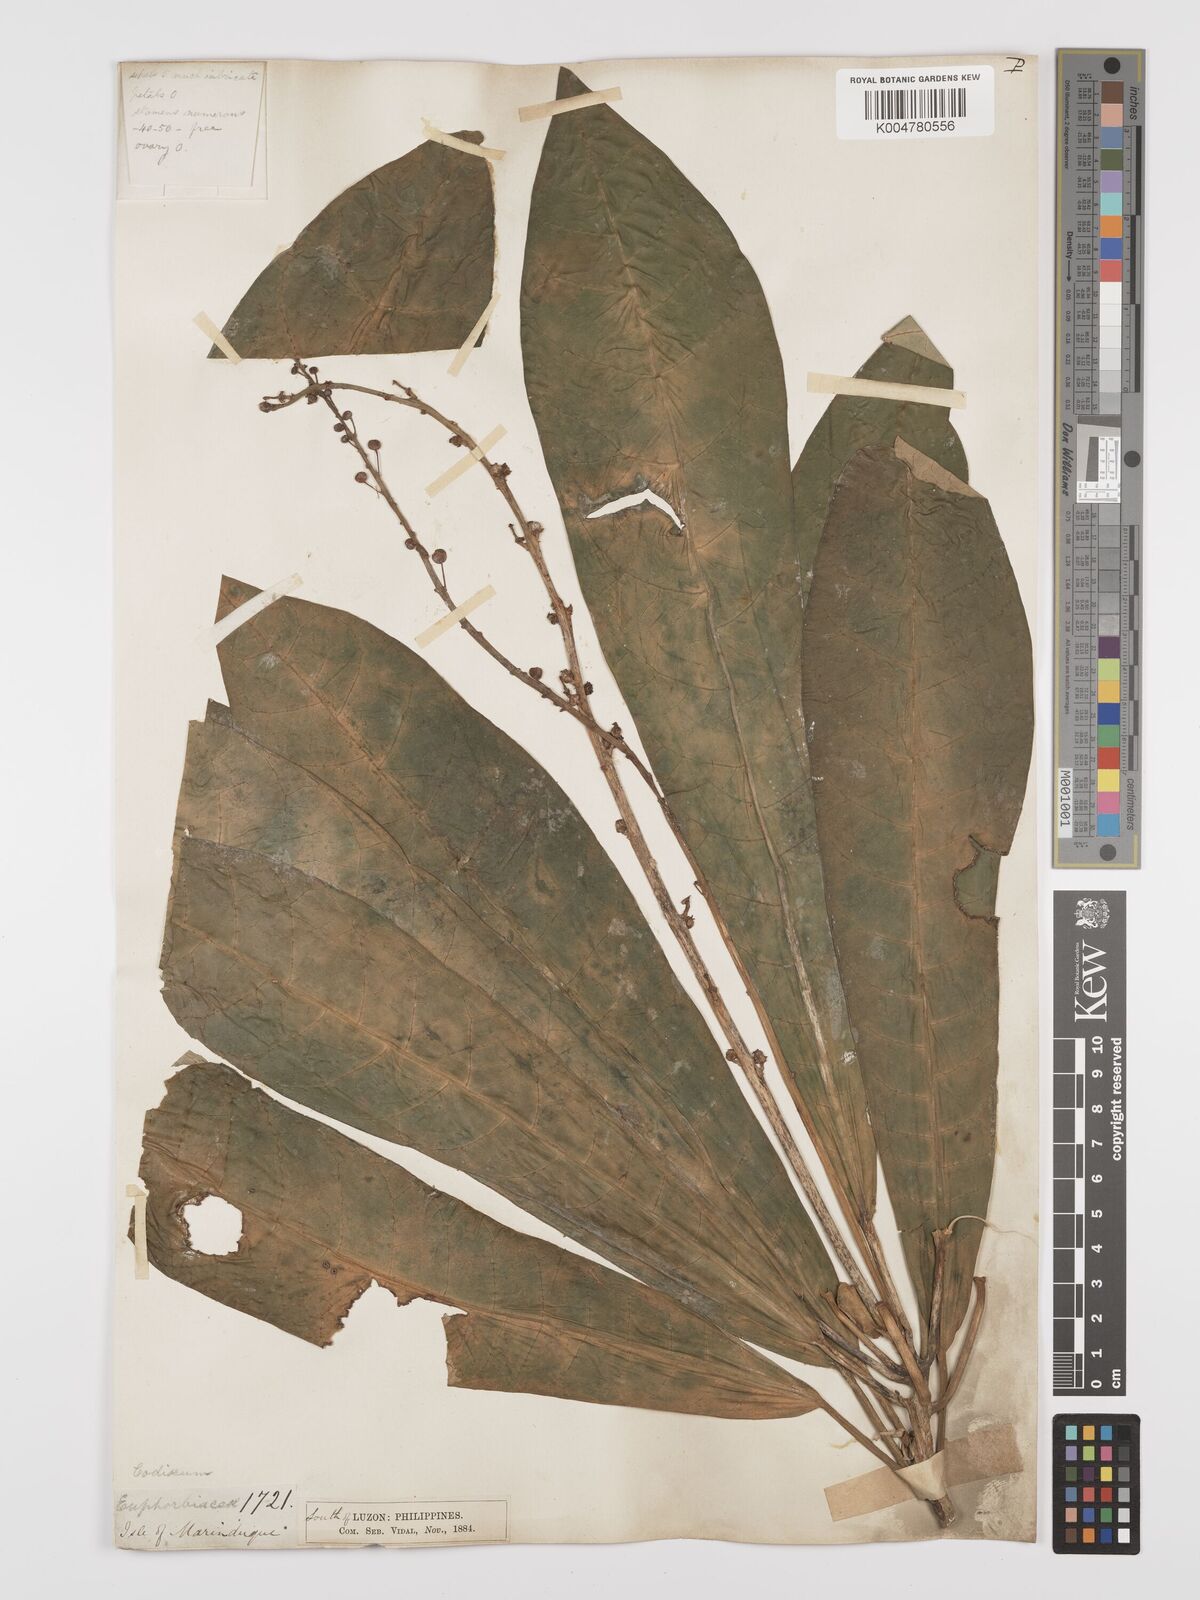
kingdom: Plantae
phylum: Tracheophyta
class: Magnoliopsida
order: Malpighiales
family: Euphorbiaceae
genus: Codiaeum
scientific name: Codiaeum palawanense
